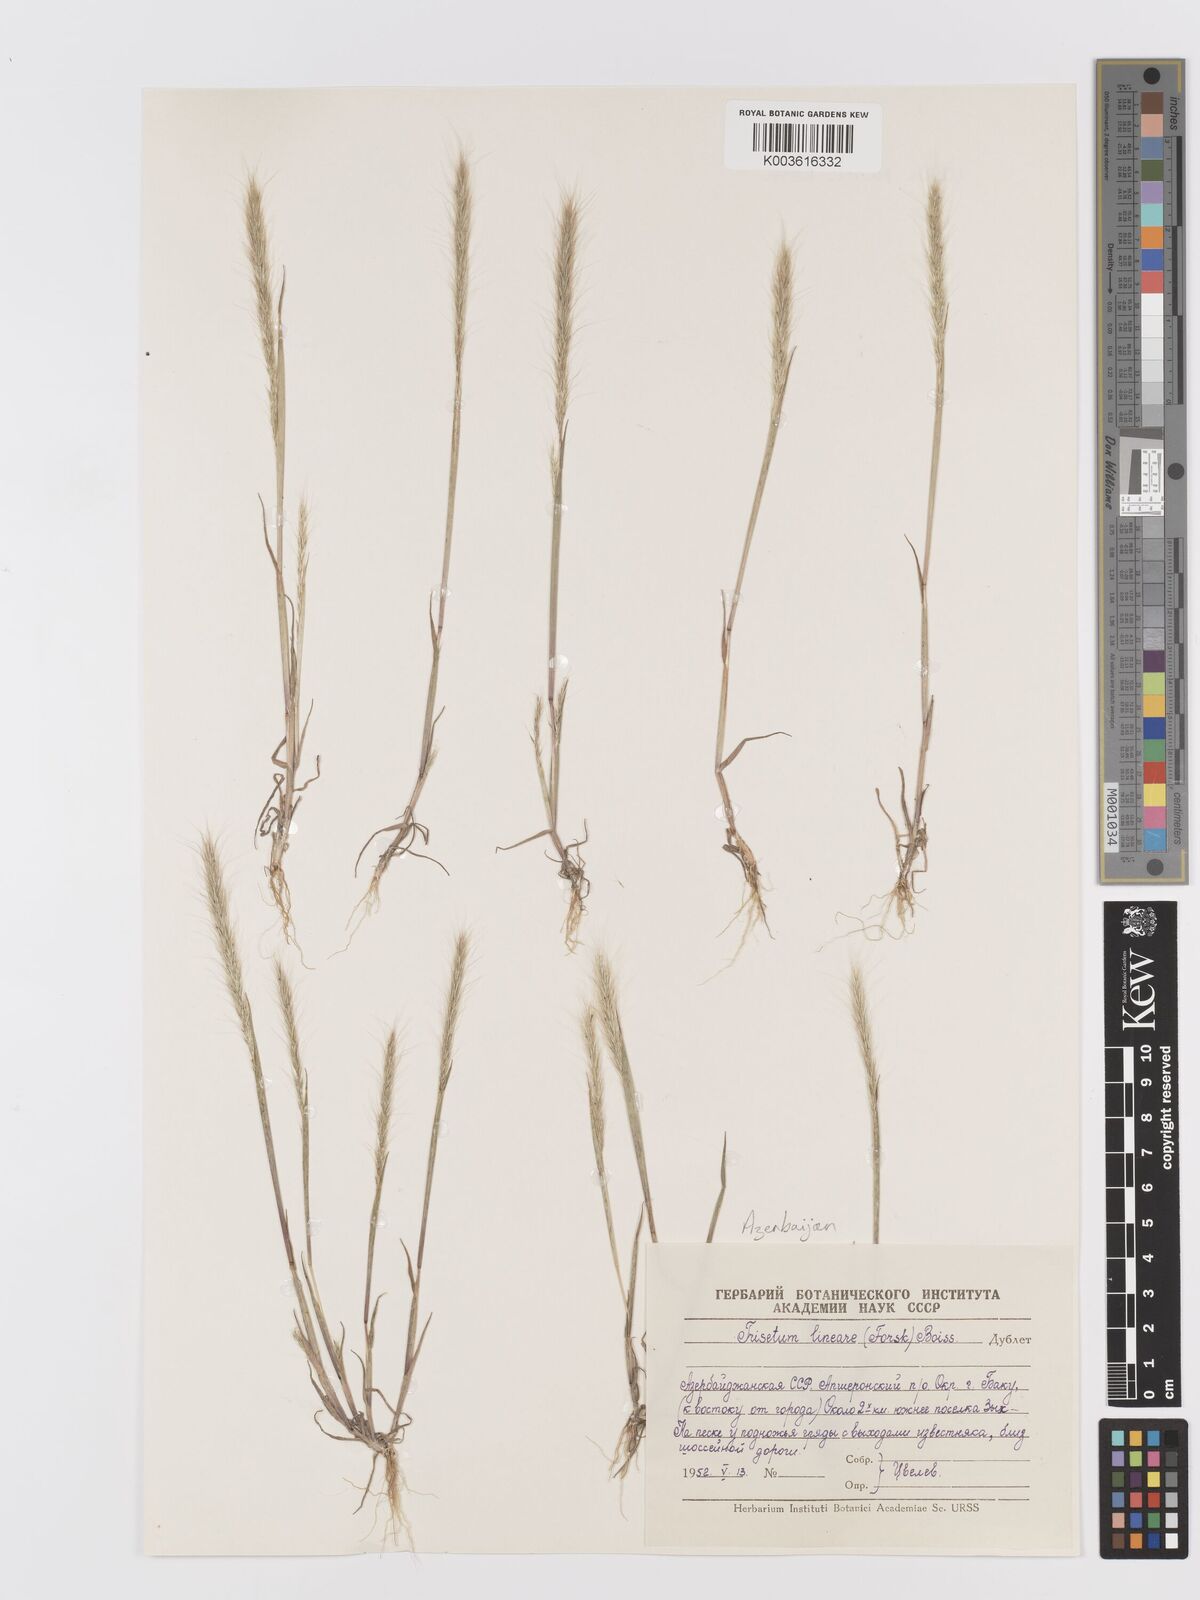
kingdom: Plantae
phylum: Tracheophyta
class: Liliopsida
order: Poales
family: Poaceae
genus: Trisetaria
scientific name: Trisetaria linearis
